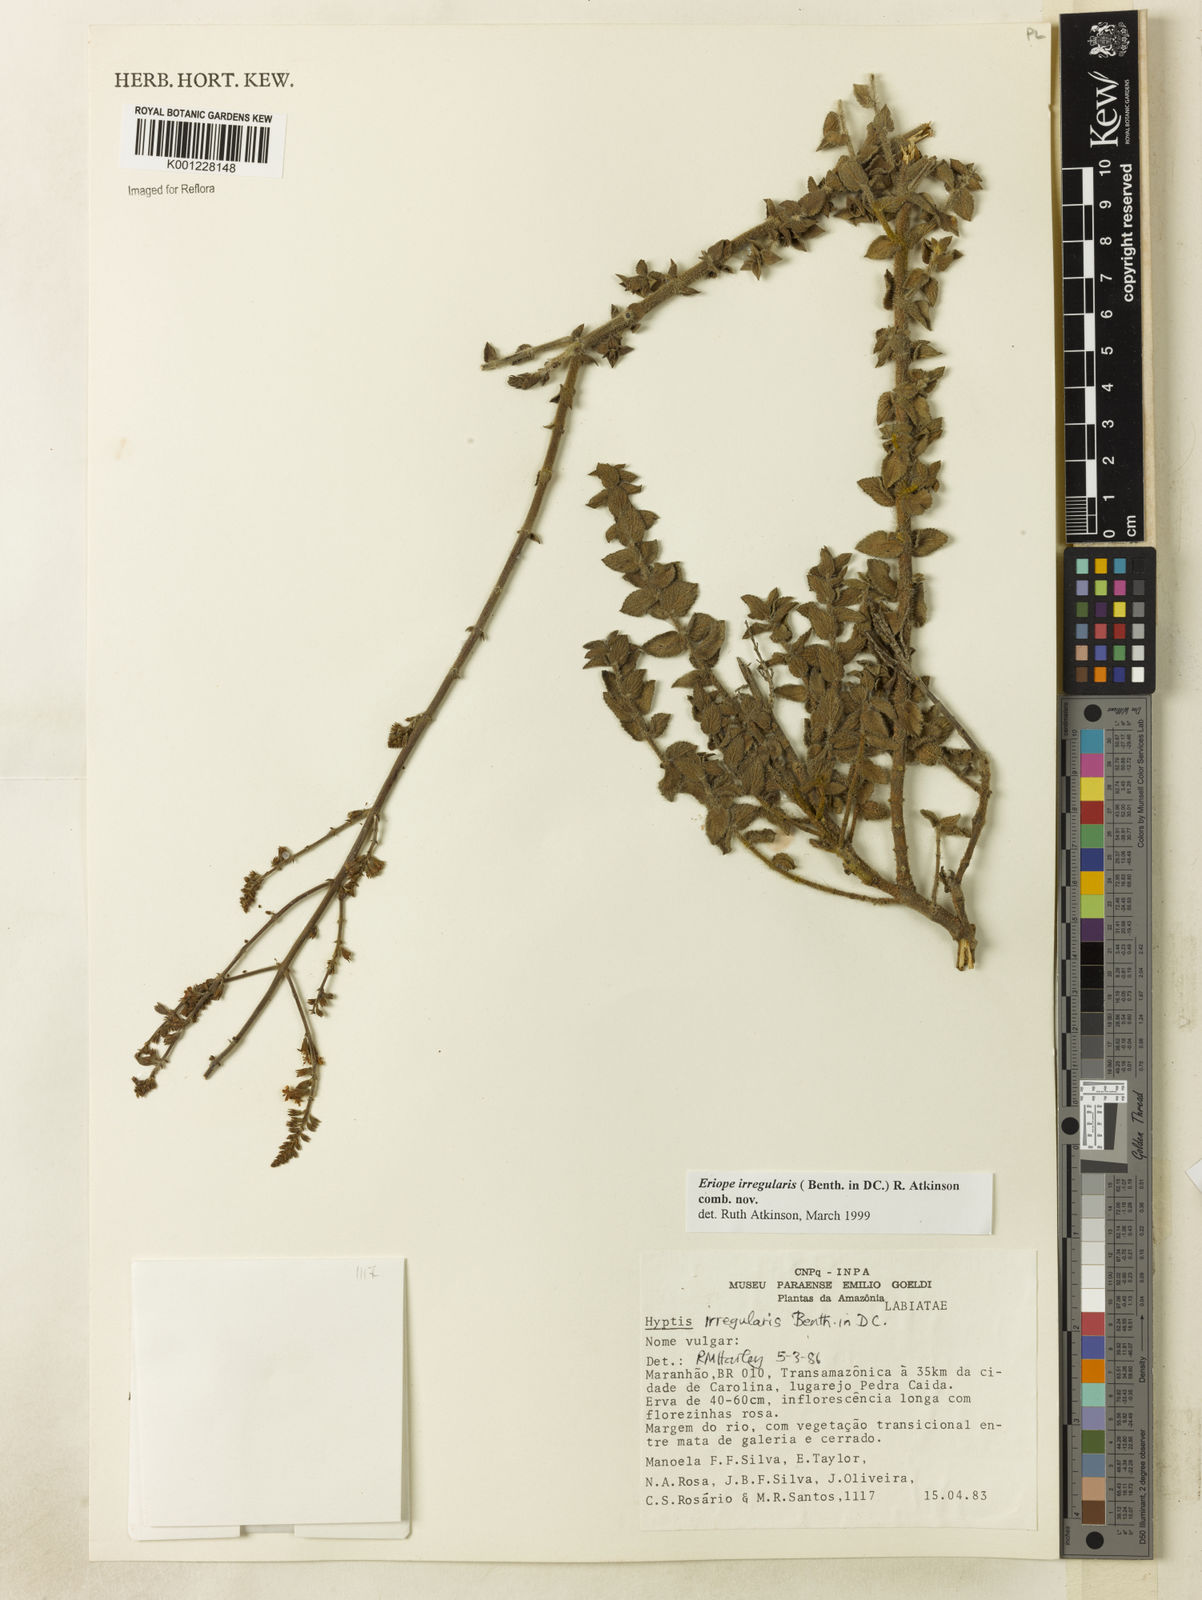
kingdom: Plantae
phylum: Tracheophyta
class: Magnoliopsida
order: Lamiales
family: Lamiaceae
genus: Hypenia
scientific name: Hypenia irregularis
